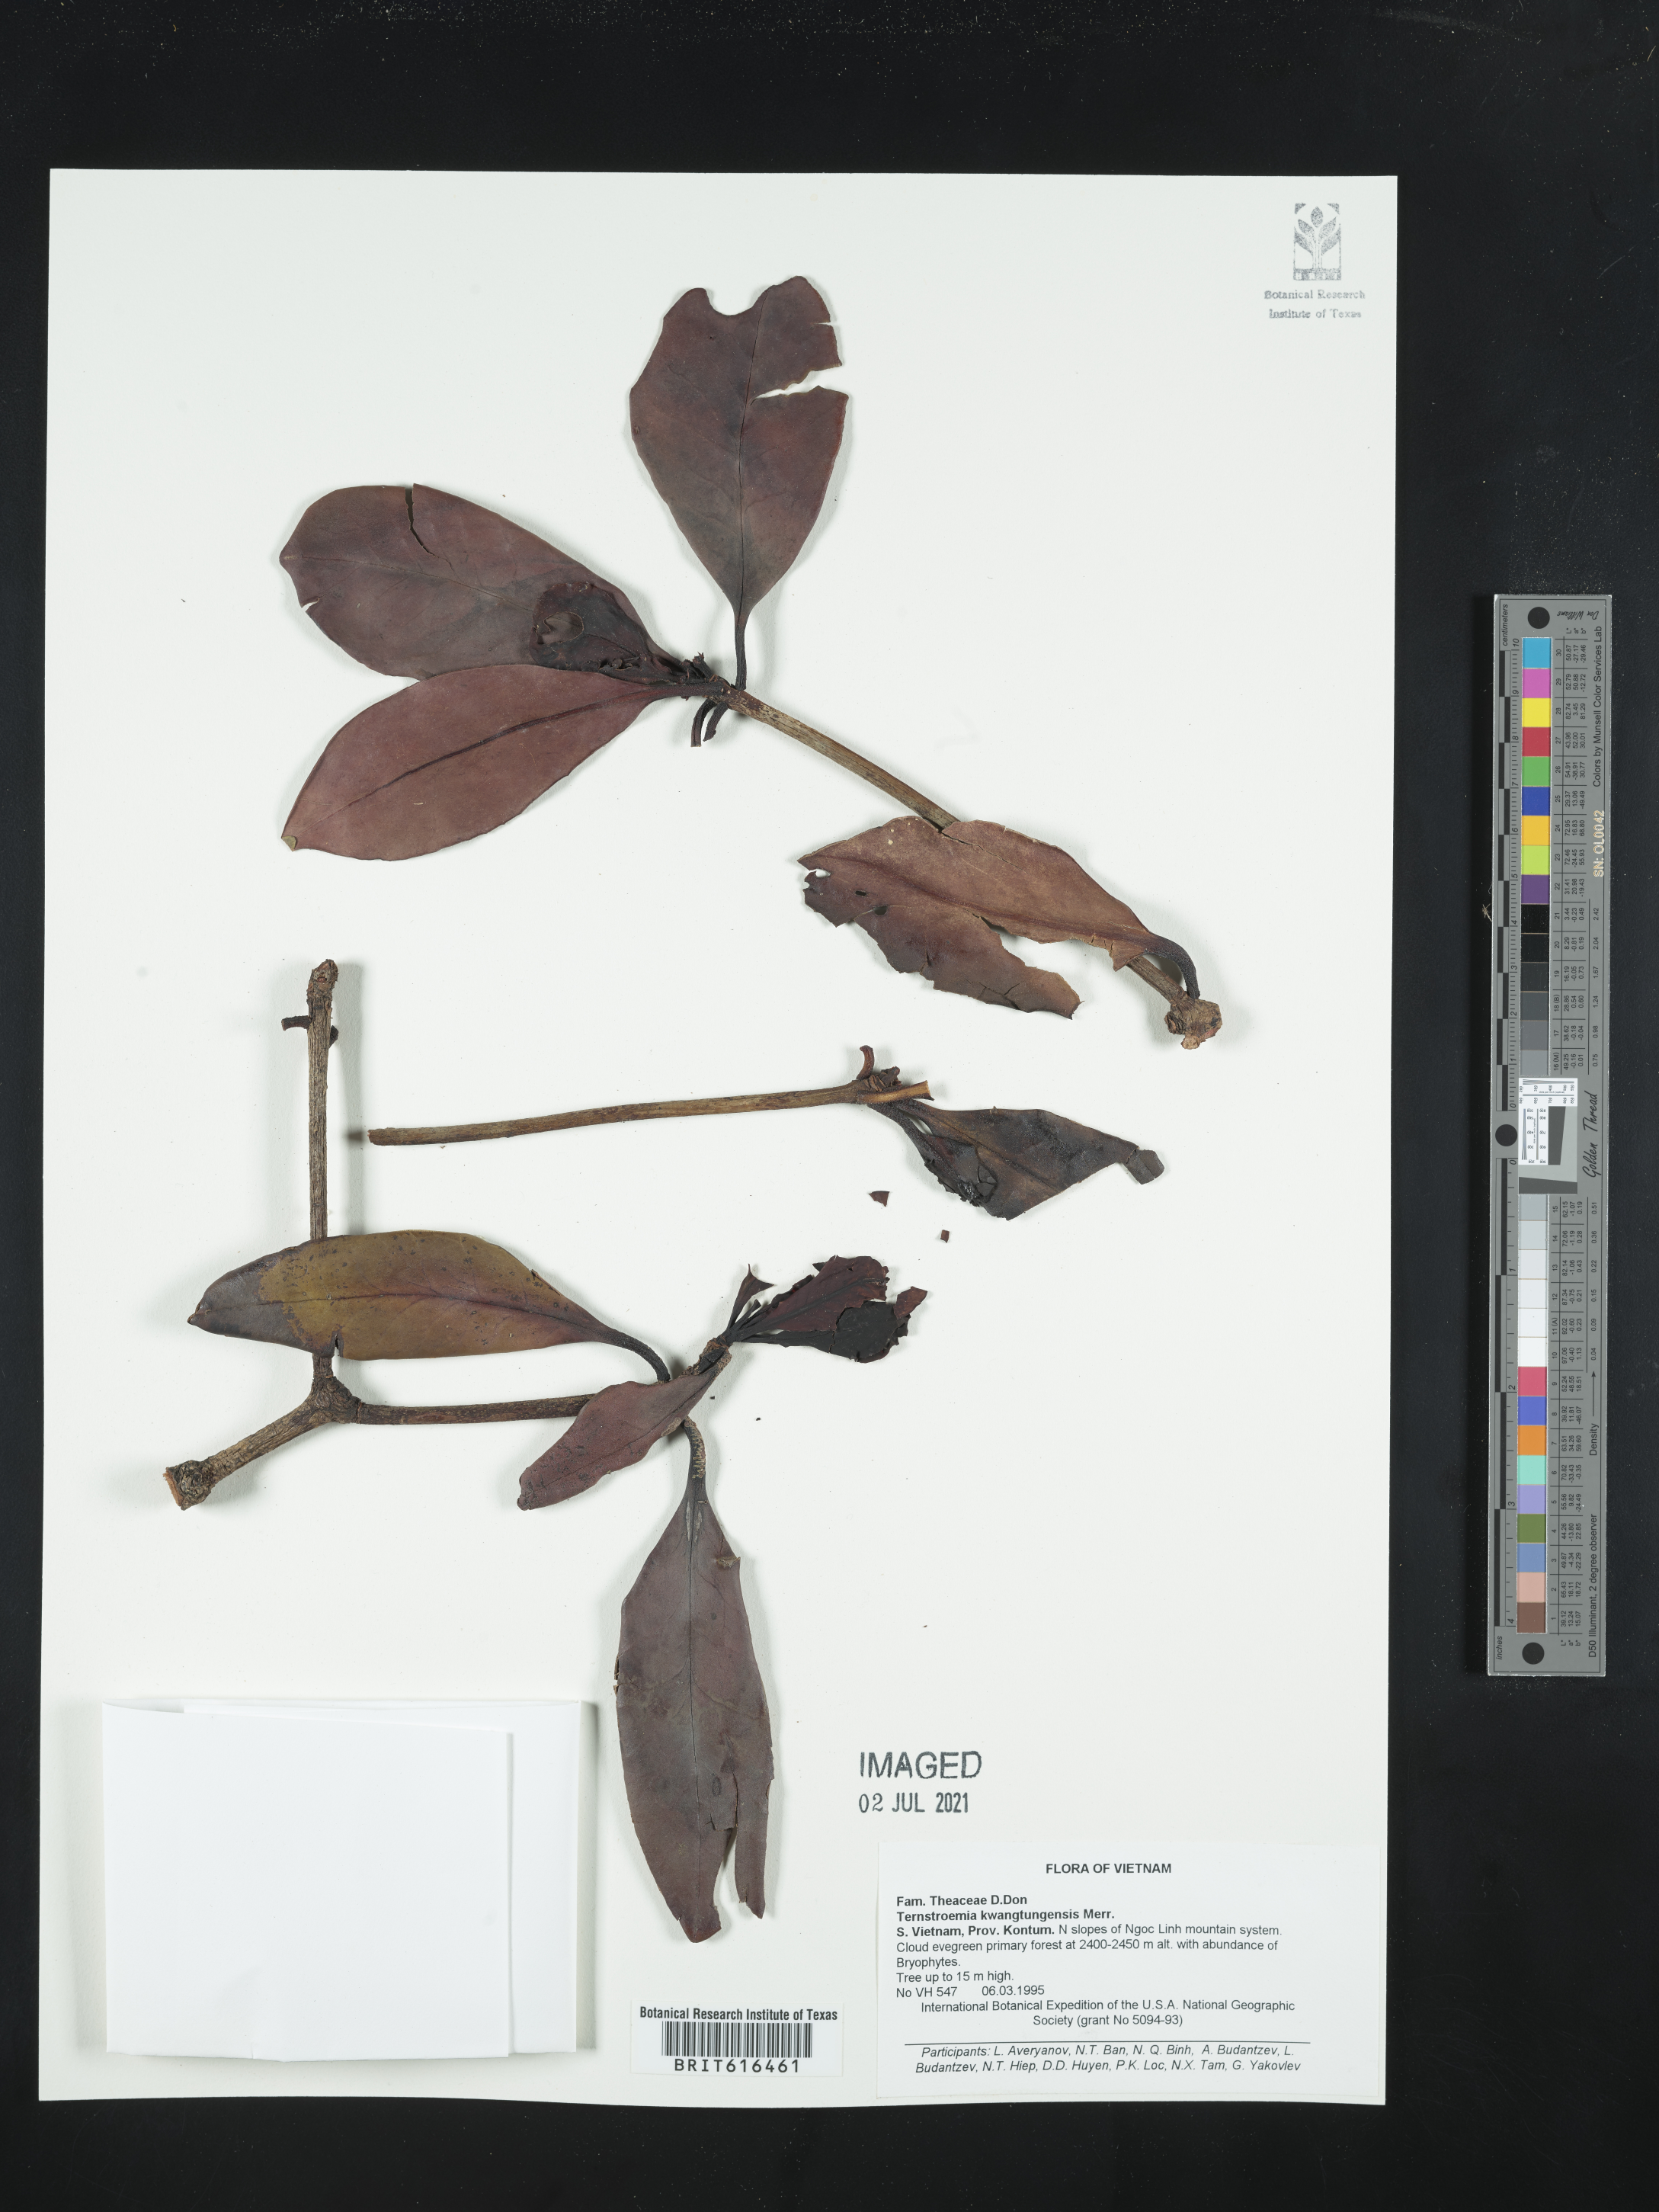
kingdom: Plantae
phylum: Tracheophyta
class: Magnoliopsida
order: Ericales
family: Pentaphylacaceae
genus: Ternstroemia
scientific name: Ternstroemia kwangtungensis
